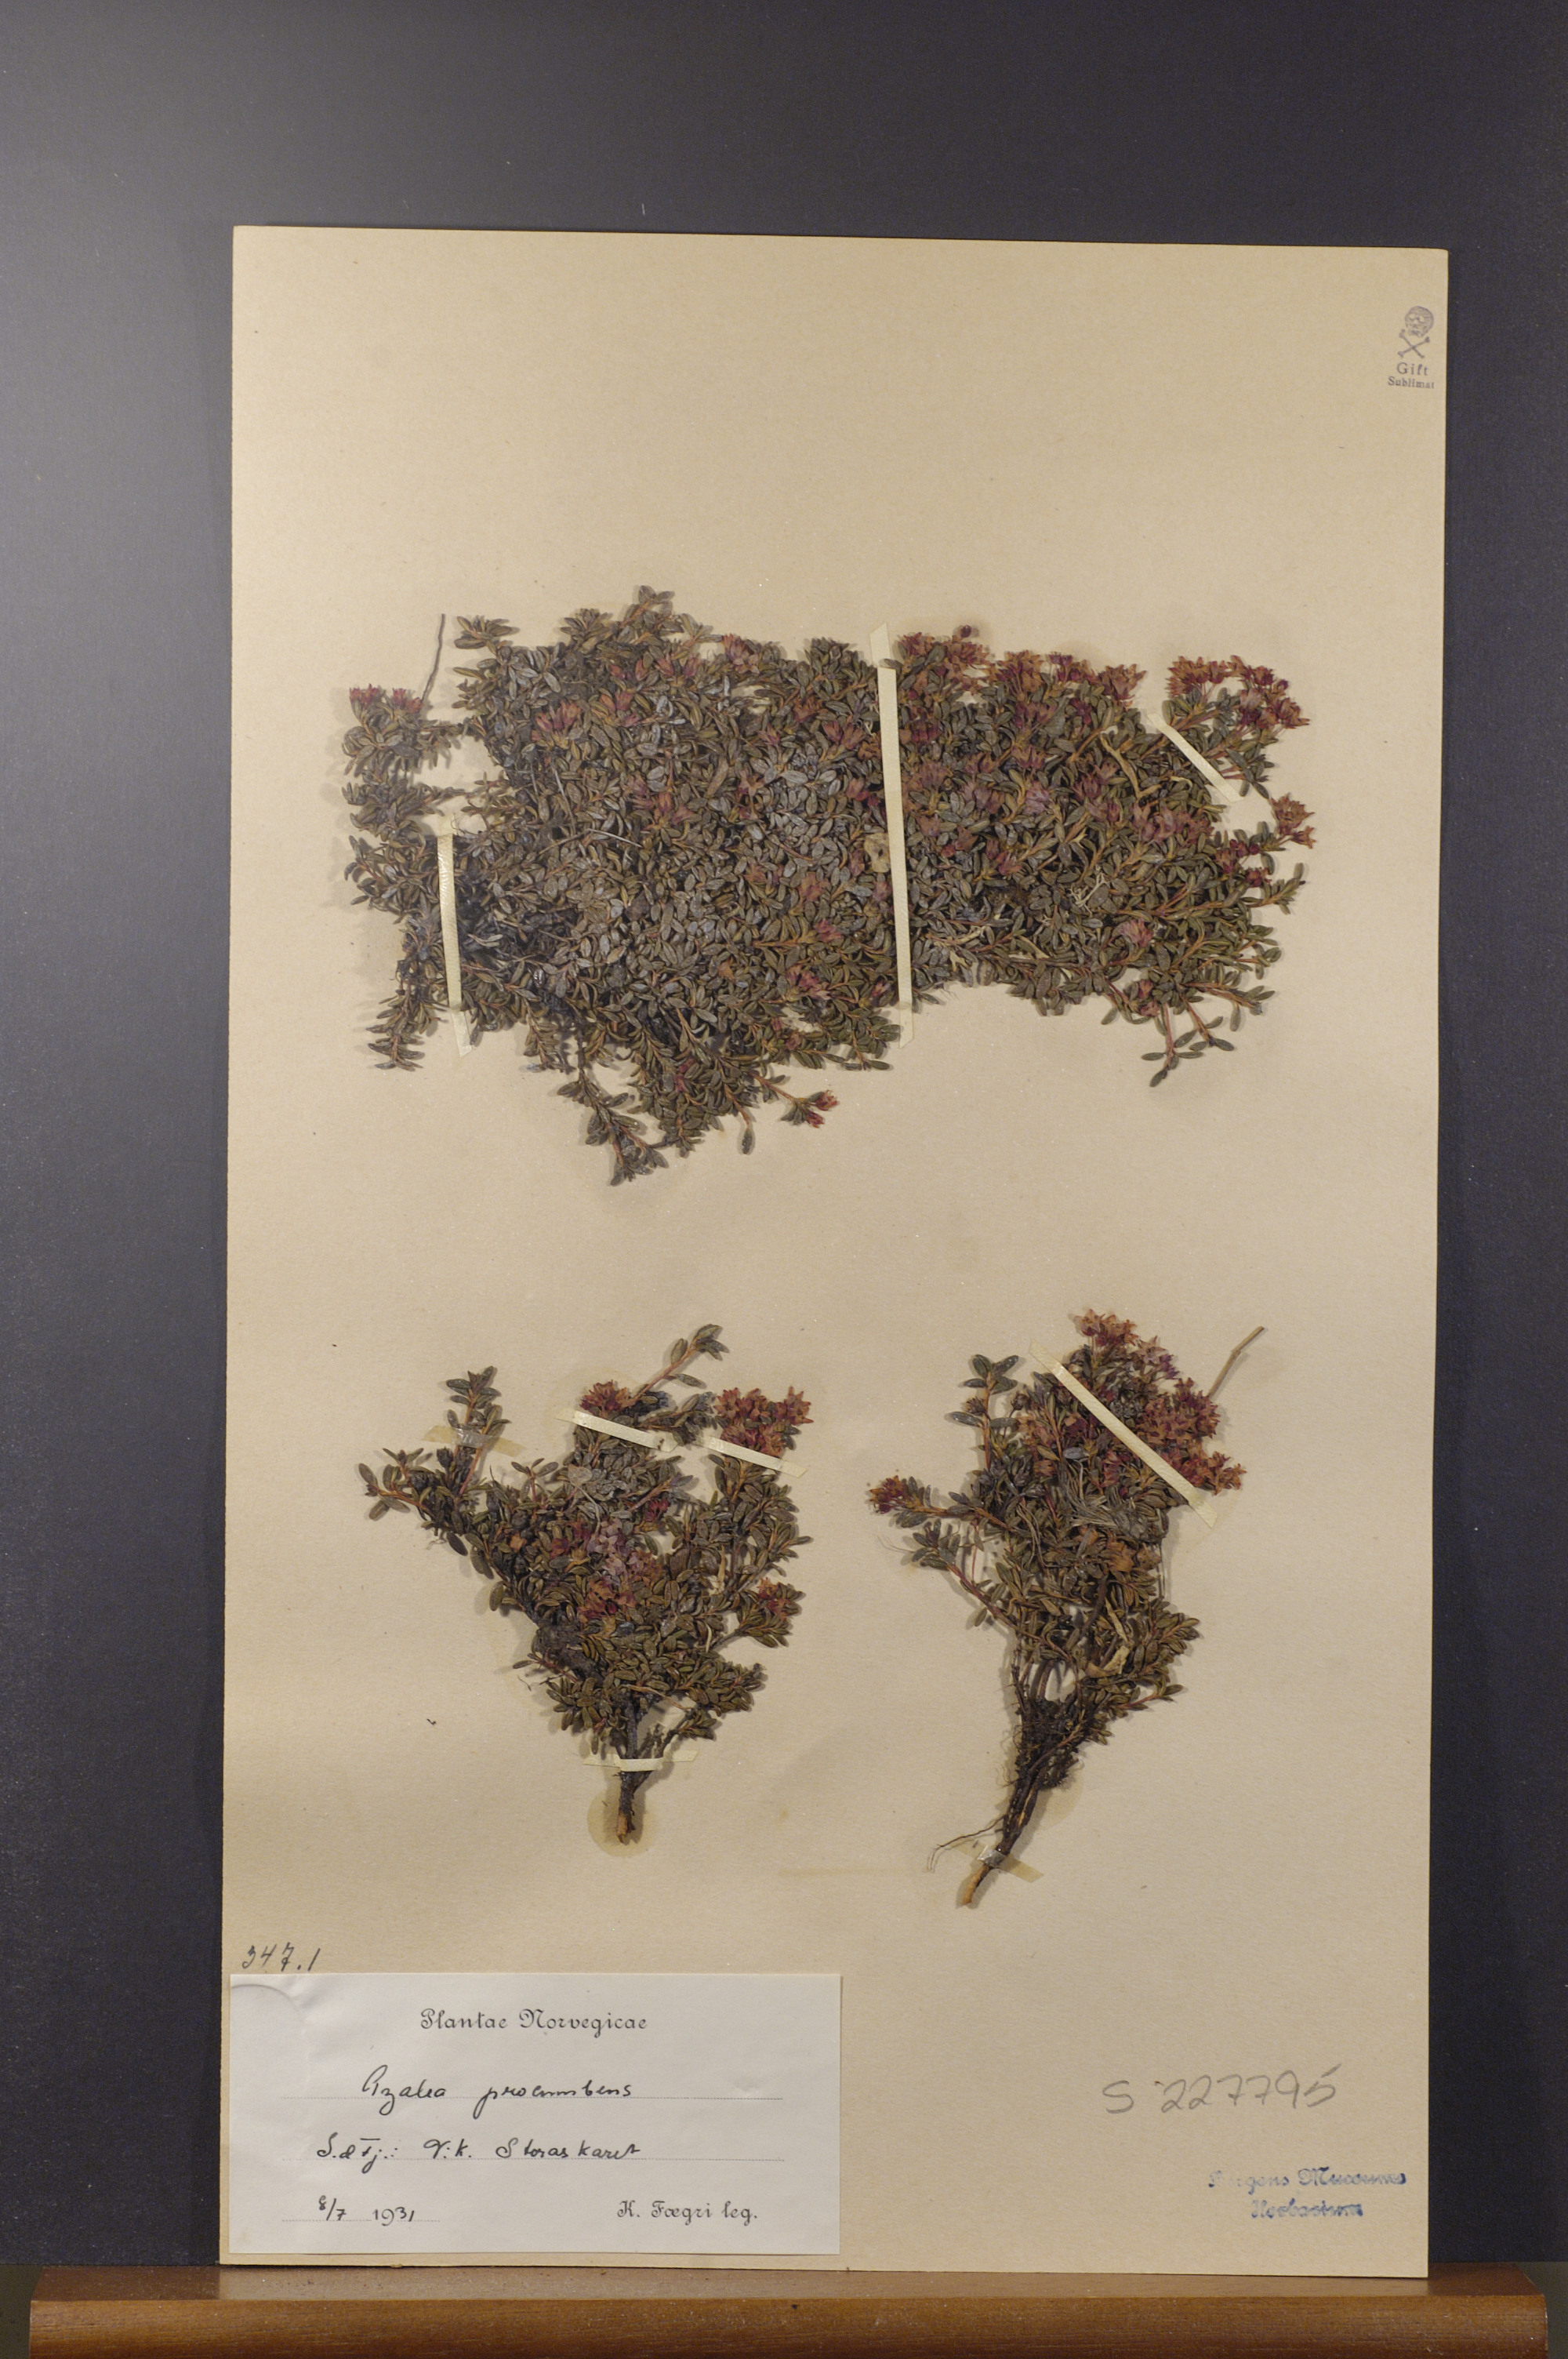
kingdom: Plantae
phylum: Tracheophyta
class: Magnoliopsida
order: Ericales
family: Ericaceae
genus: Kalmia
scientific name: Kalmia procumbens
